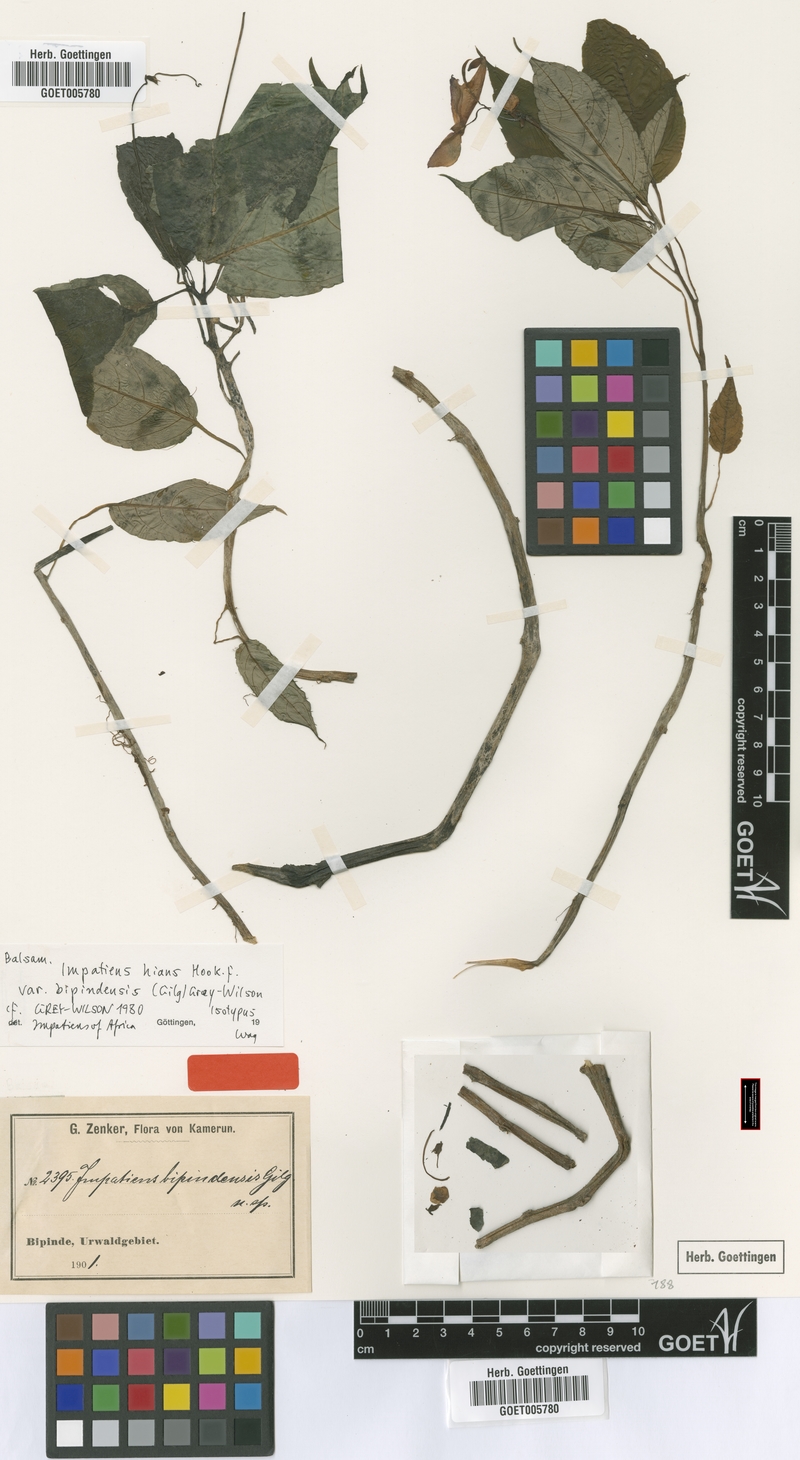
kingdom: Plantae
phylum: Tracheophyta
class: Magnoliopsida
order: Ericales
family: Balsaminaceae
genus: Impatiens
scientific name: Impatiens hians
